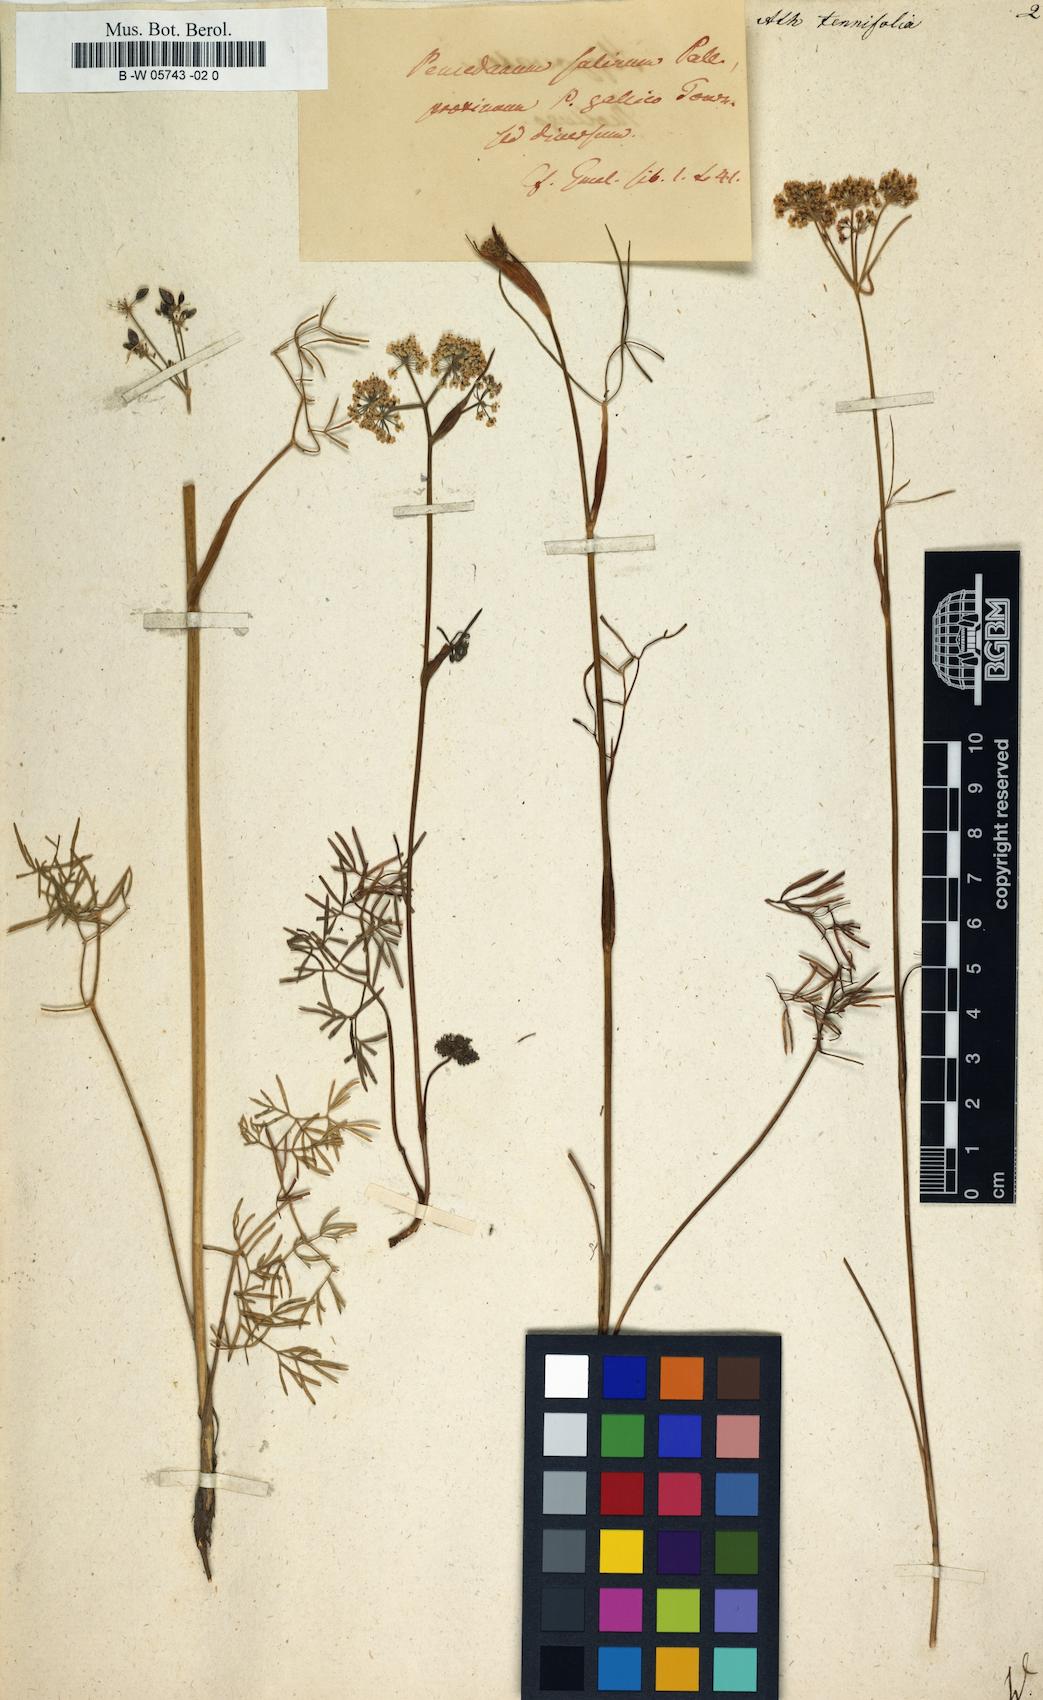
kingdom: Plantae
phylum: Tracheophyta
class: Magnoliopsida
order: Apiales
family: Apiaceae
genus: Ostericum
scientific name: Ostericum tenuifolium
